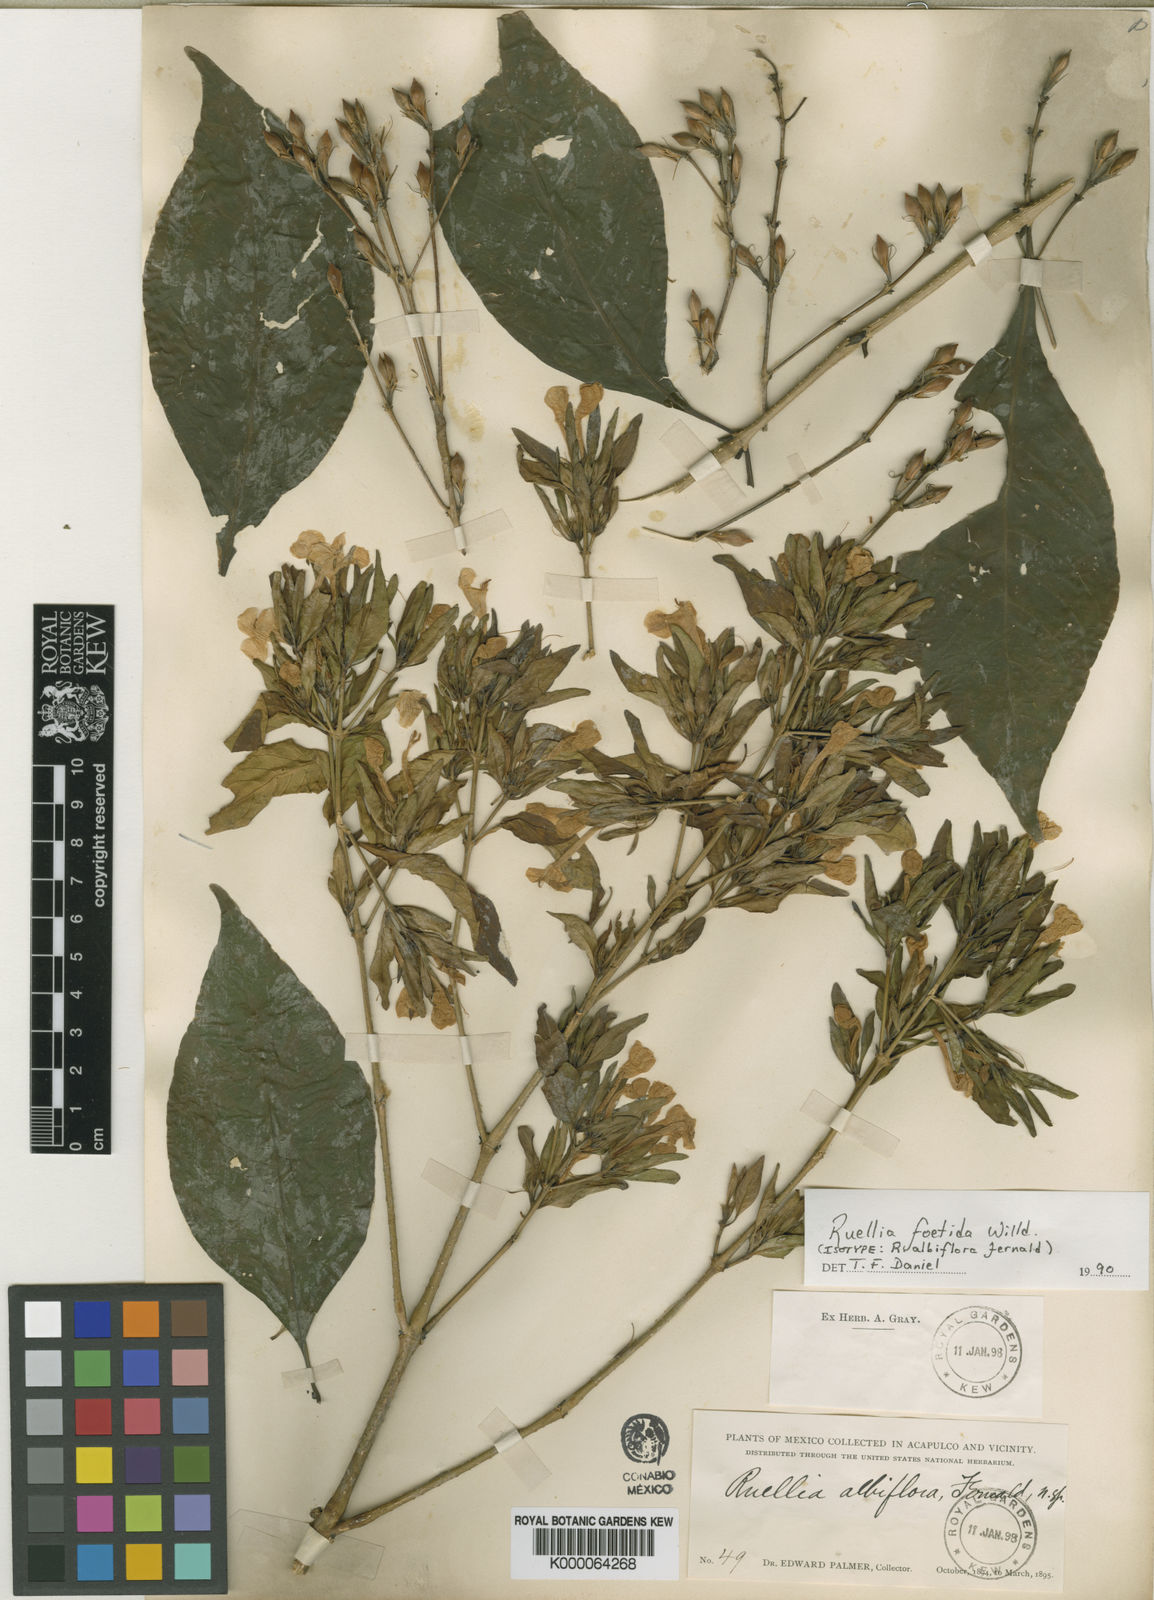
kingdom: Plantae
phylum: Tracheophyta
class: Magnoliopsida
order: Lamiales
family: Acanthaceae
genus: Ruellia
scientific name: Ruellia foetida
